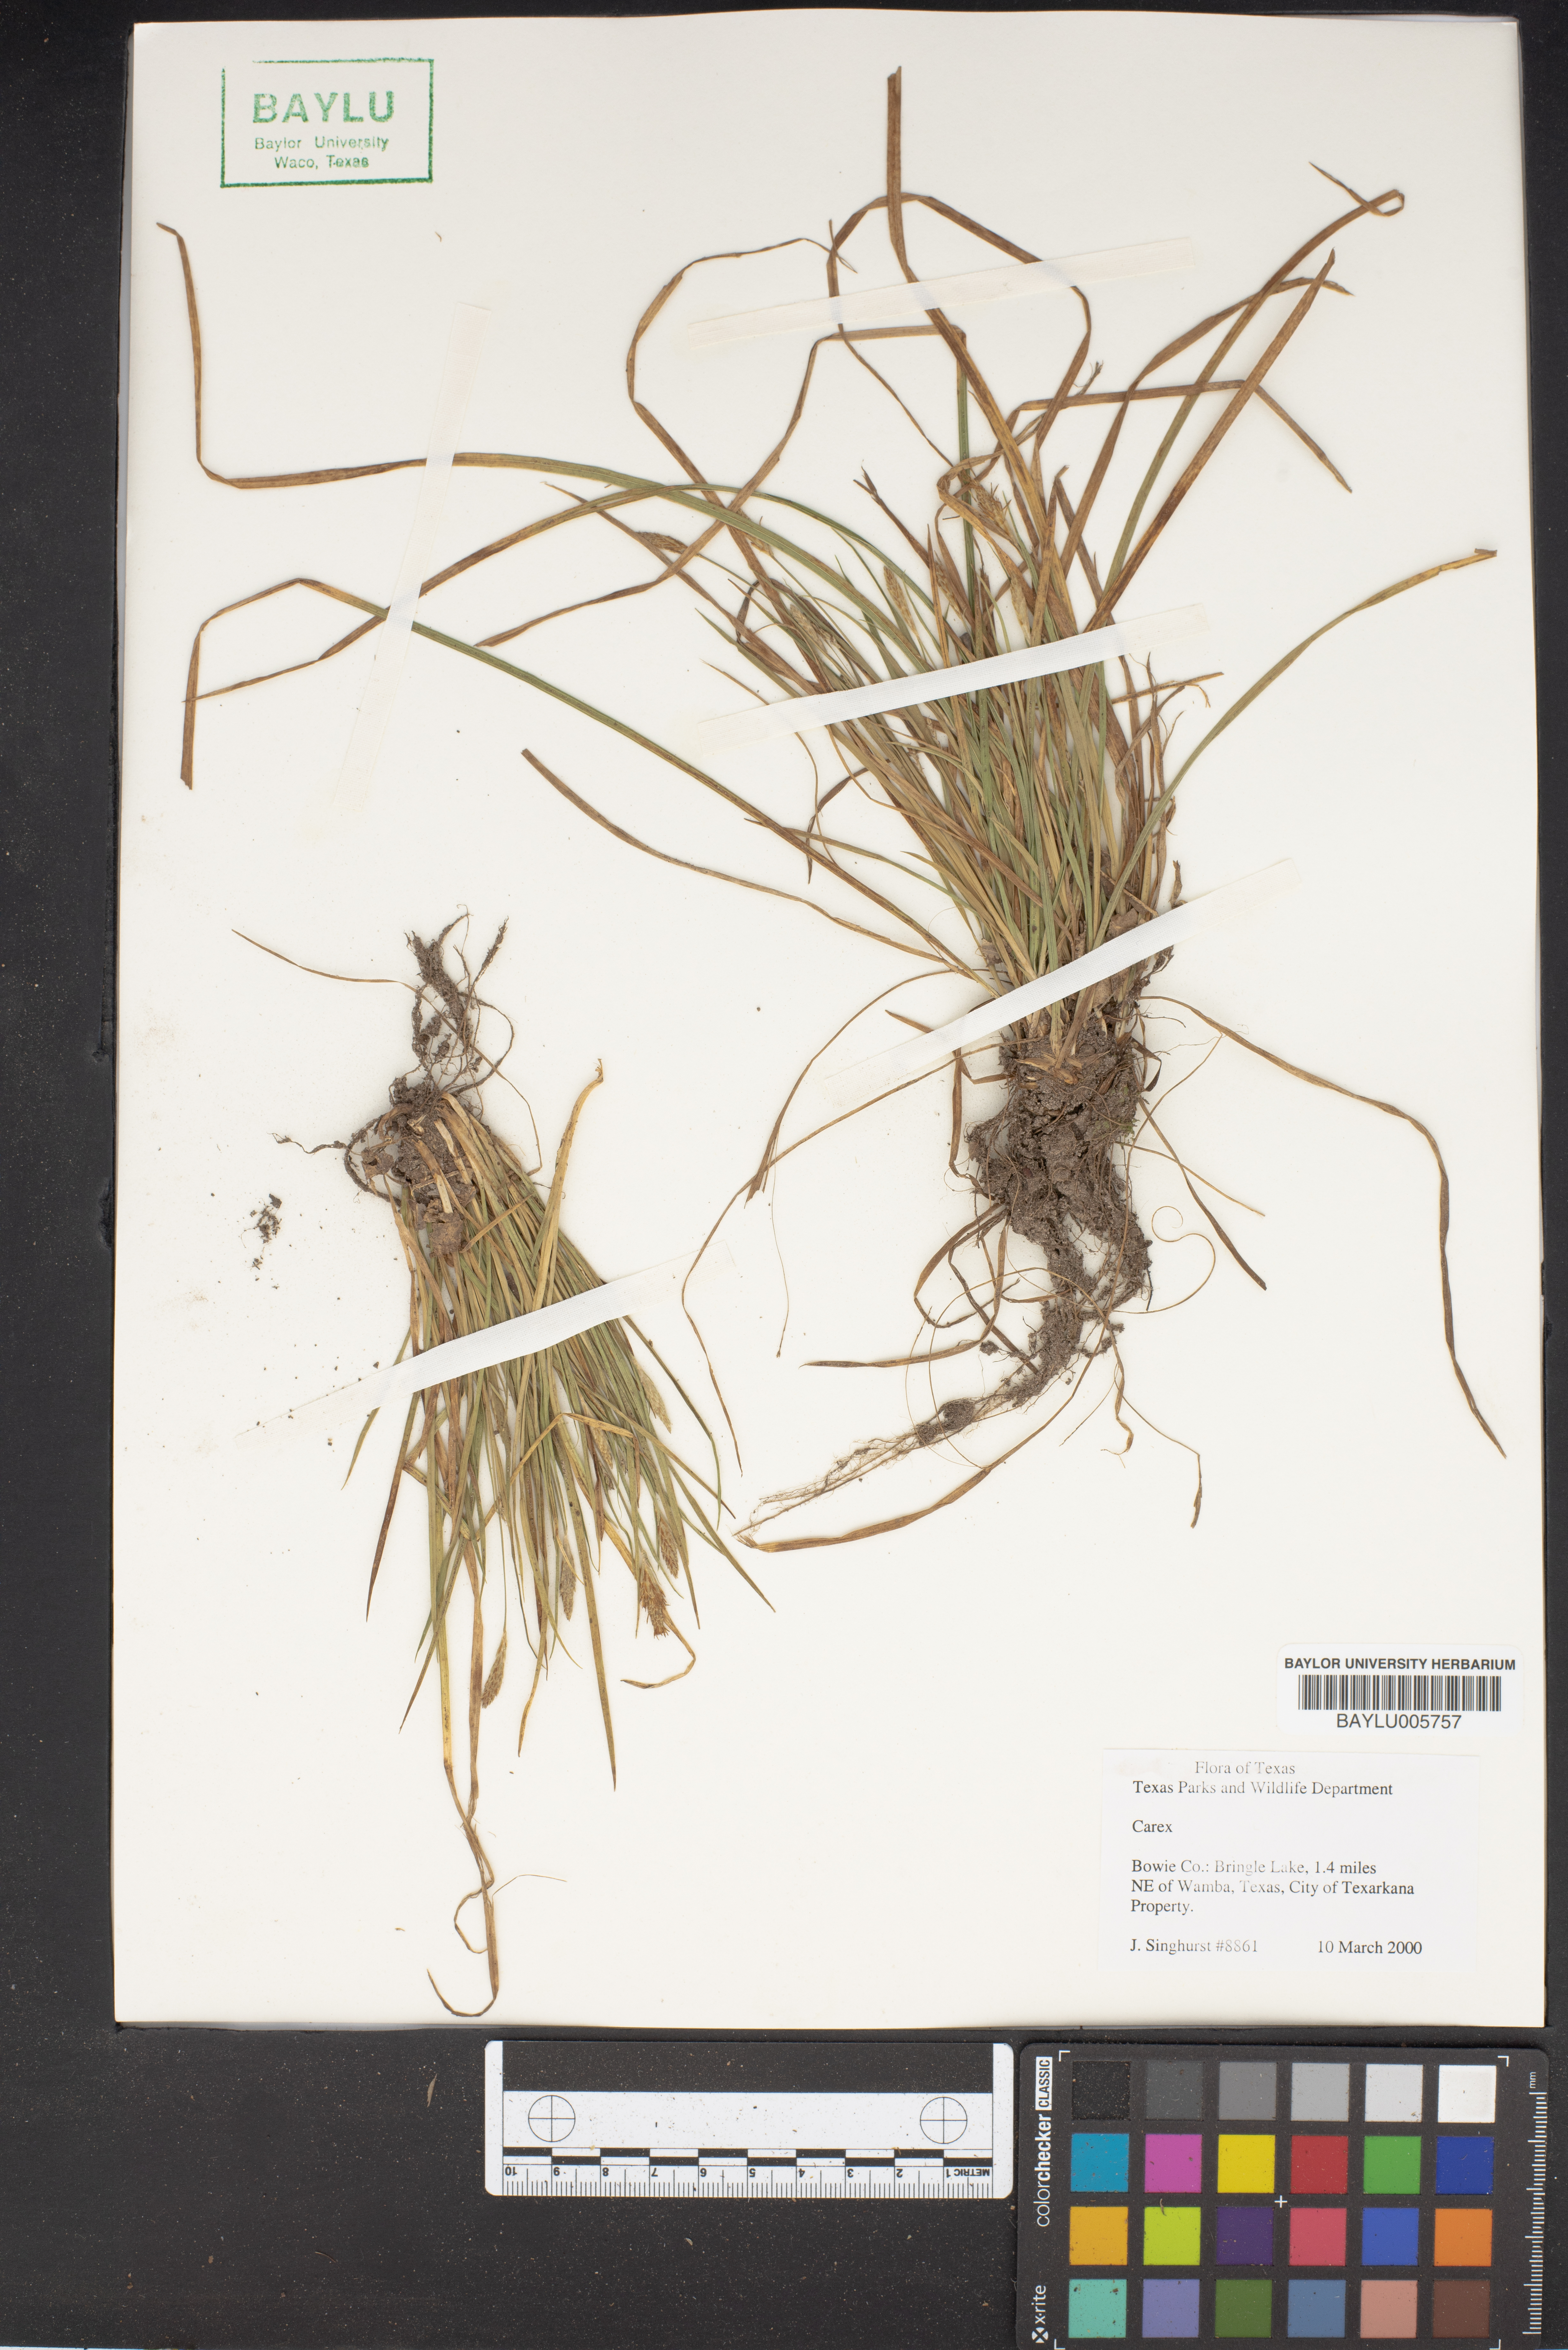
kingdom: Plantae
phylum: Tracheophyta
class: Liliopsida
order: Poales
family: Cyperaceae
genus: Carex
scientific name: Carex
